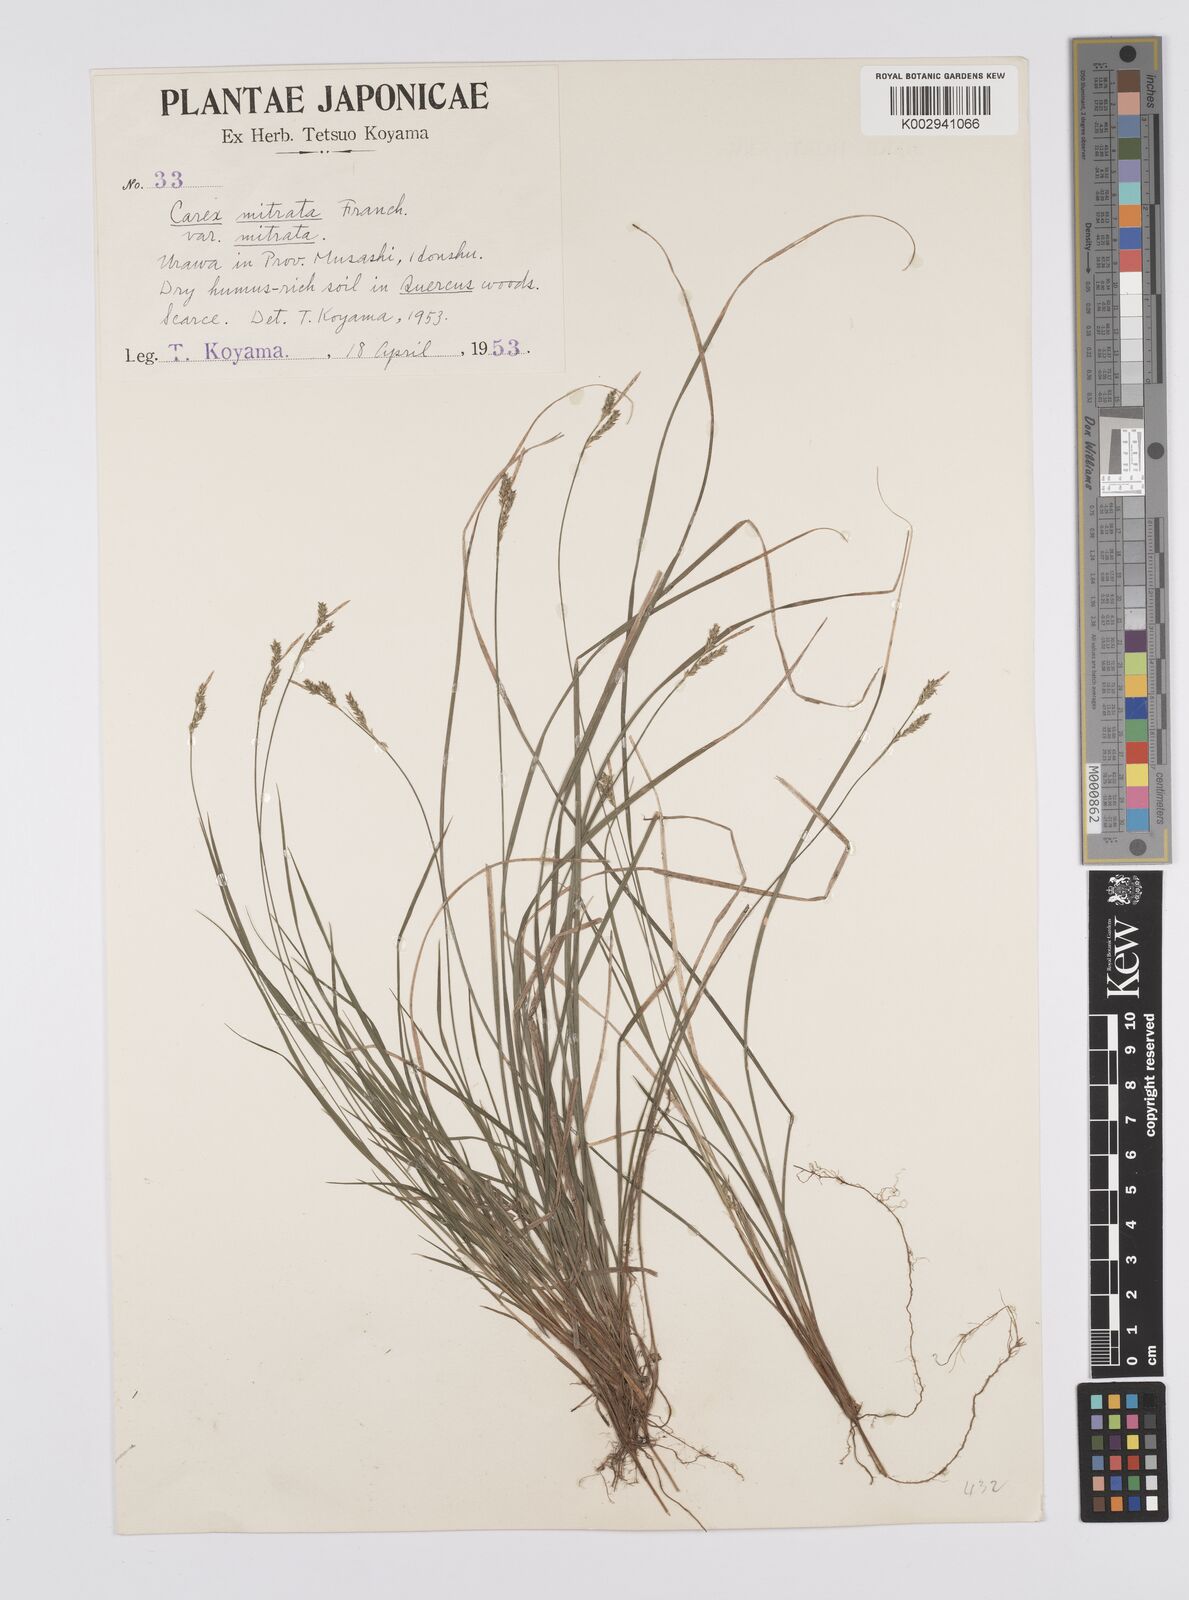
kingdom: Plantae
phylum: Tracheophyta
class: Liliopsida
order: Poales
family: Cyperaceae
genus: Carex
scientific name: Carex mitrata
